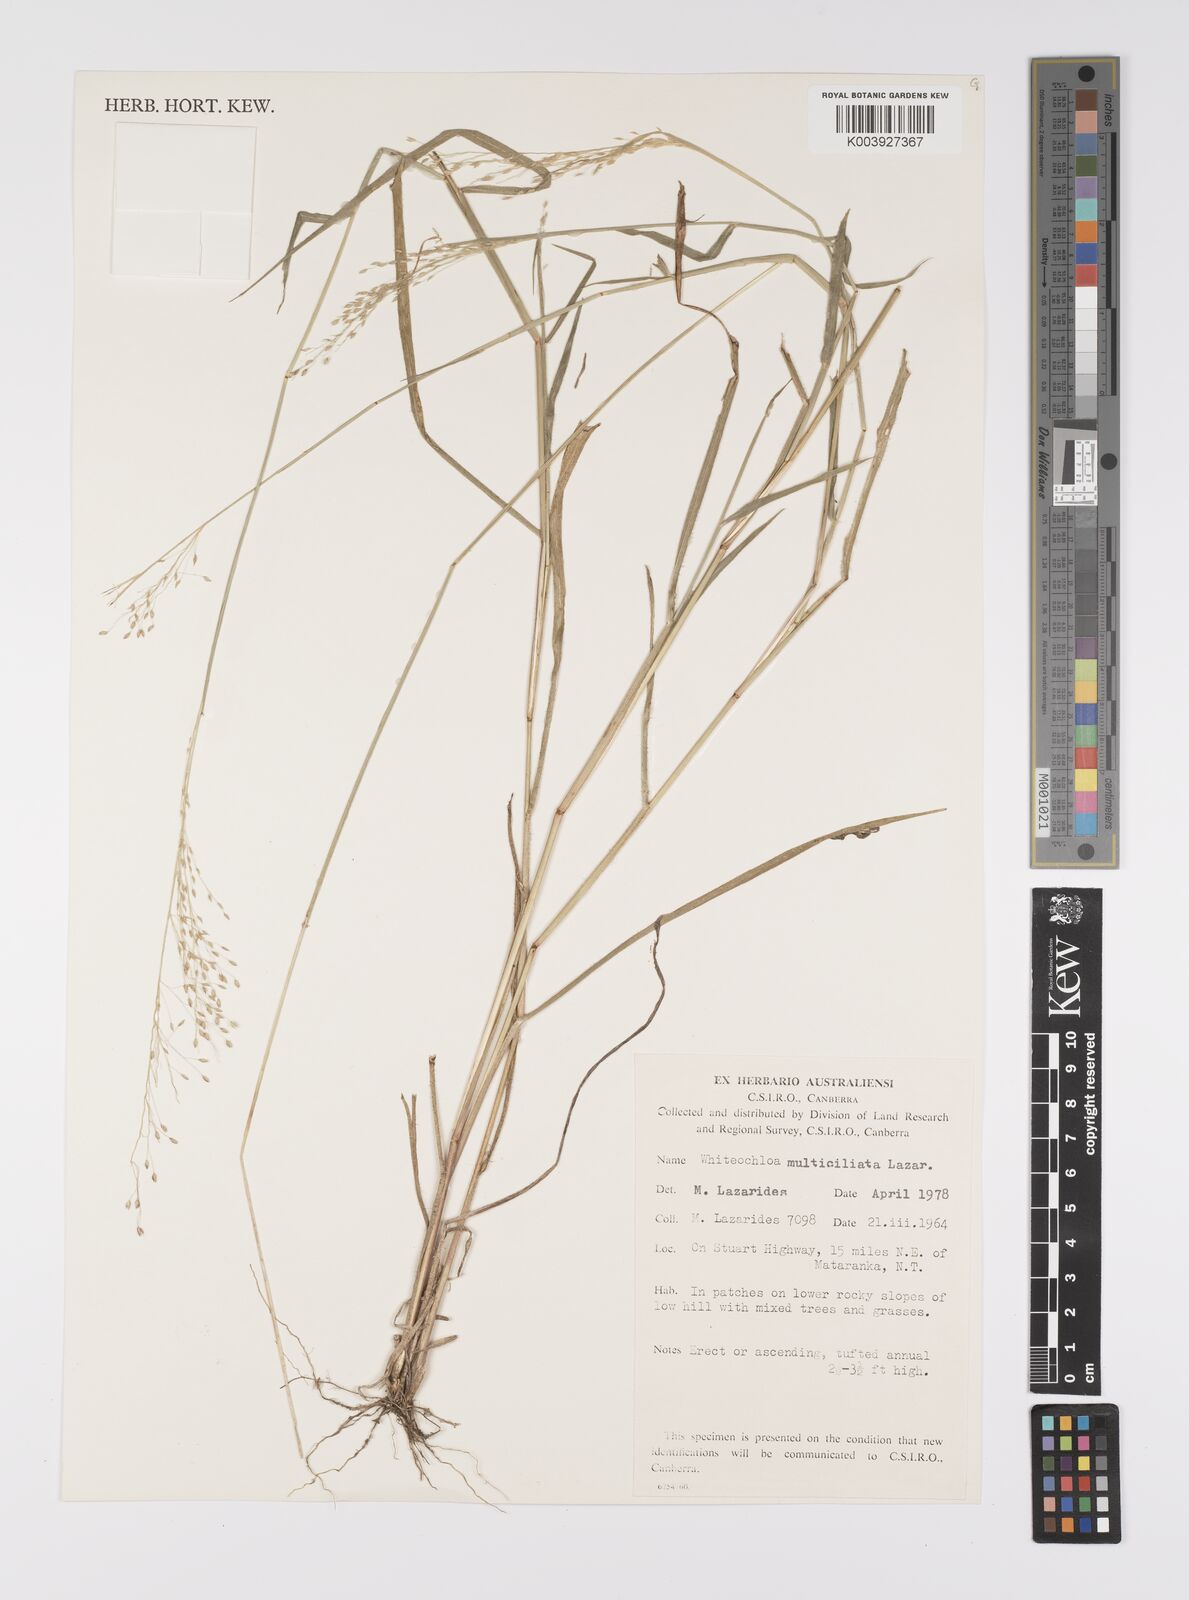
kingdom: Plantae
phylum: Tracheophyta
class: Liliopsida
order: Poales
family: Poaceae
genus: Whiteochloa
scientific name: Whiteochloa multiciliata
